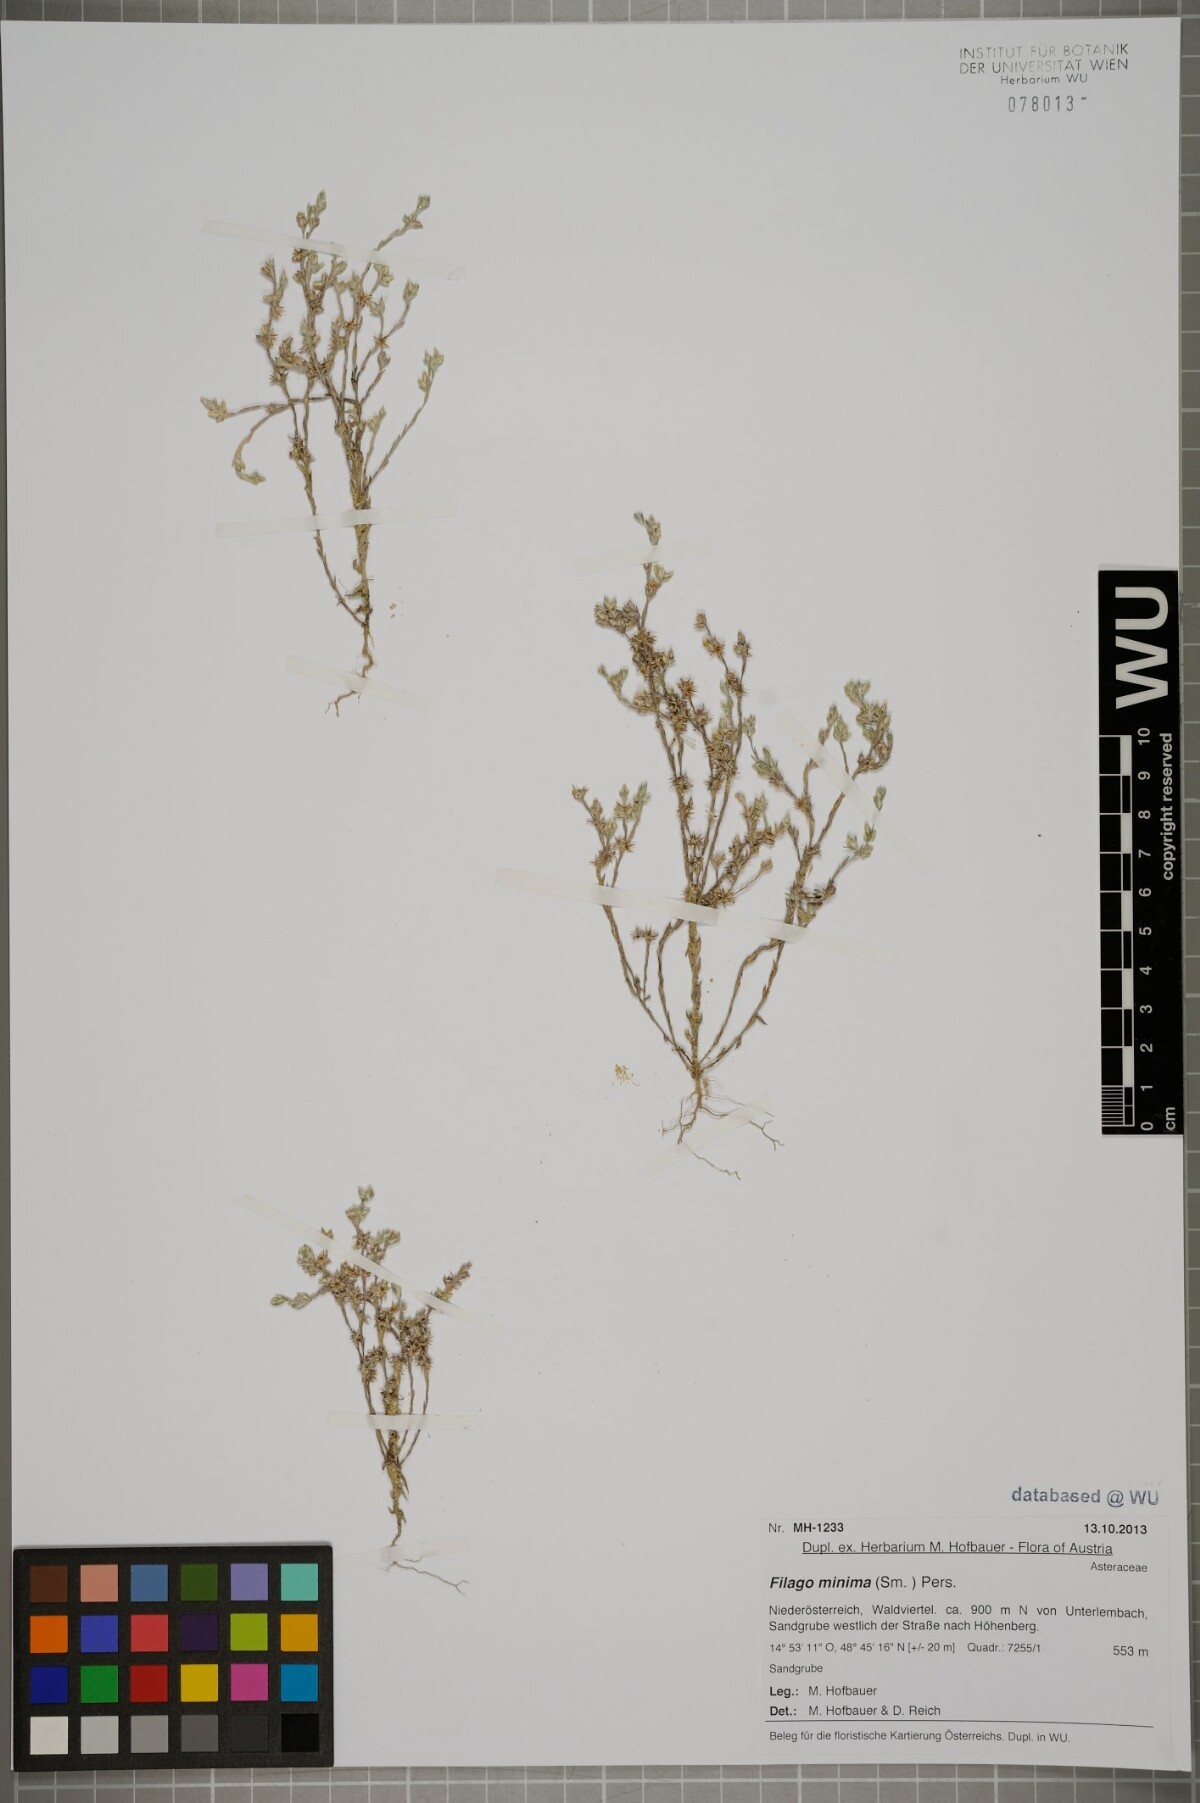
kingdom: Plantae
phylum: Tracheophyta
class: Magnoliopsida
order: Asterales
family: Asteraceae
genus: Logfia
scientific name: Logfia minima
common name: Little cottonrose
